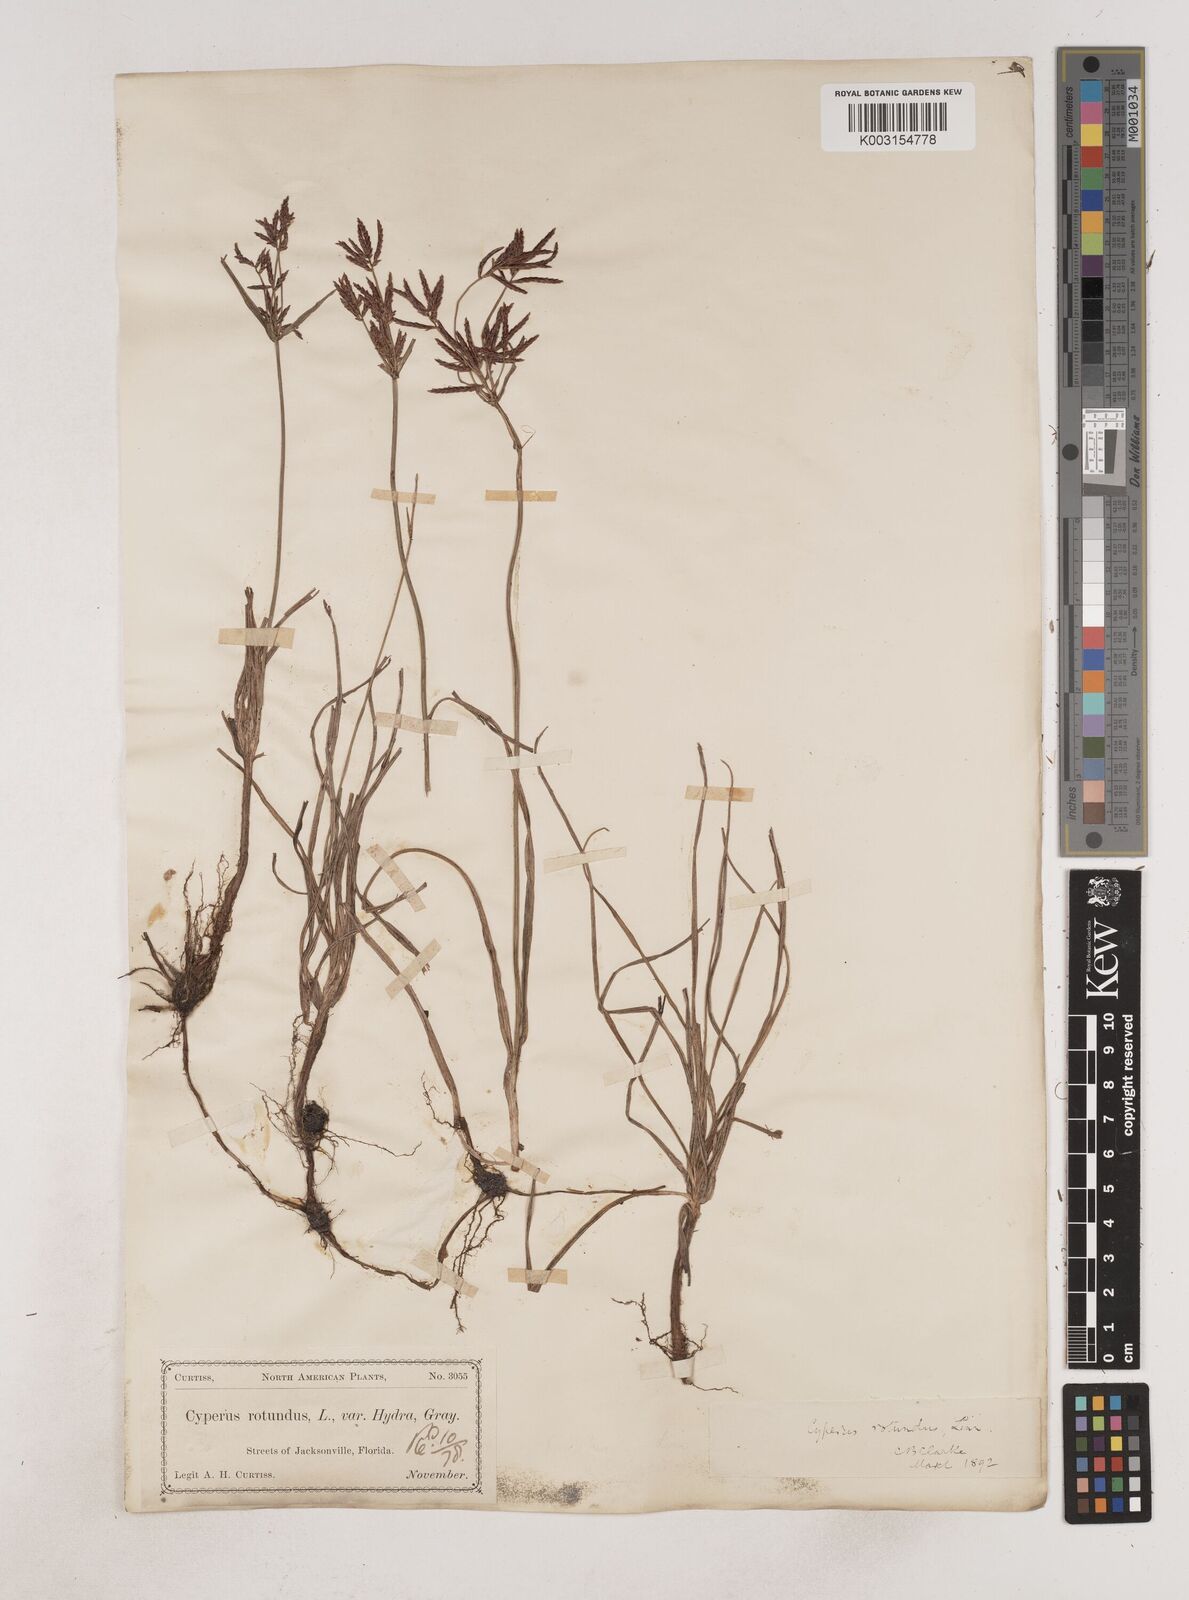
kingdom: Plantae
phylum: Tracheophyta
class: Liliopsida
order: Poales
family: Cyperaceae
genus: Cyperus
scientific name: Cyperus rotundus
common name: Nutgrass
